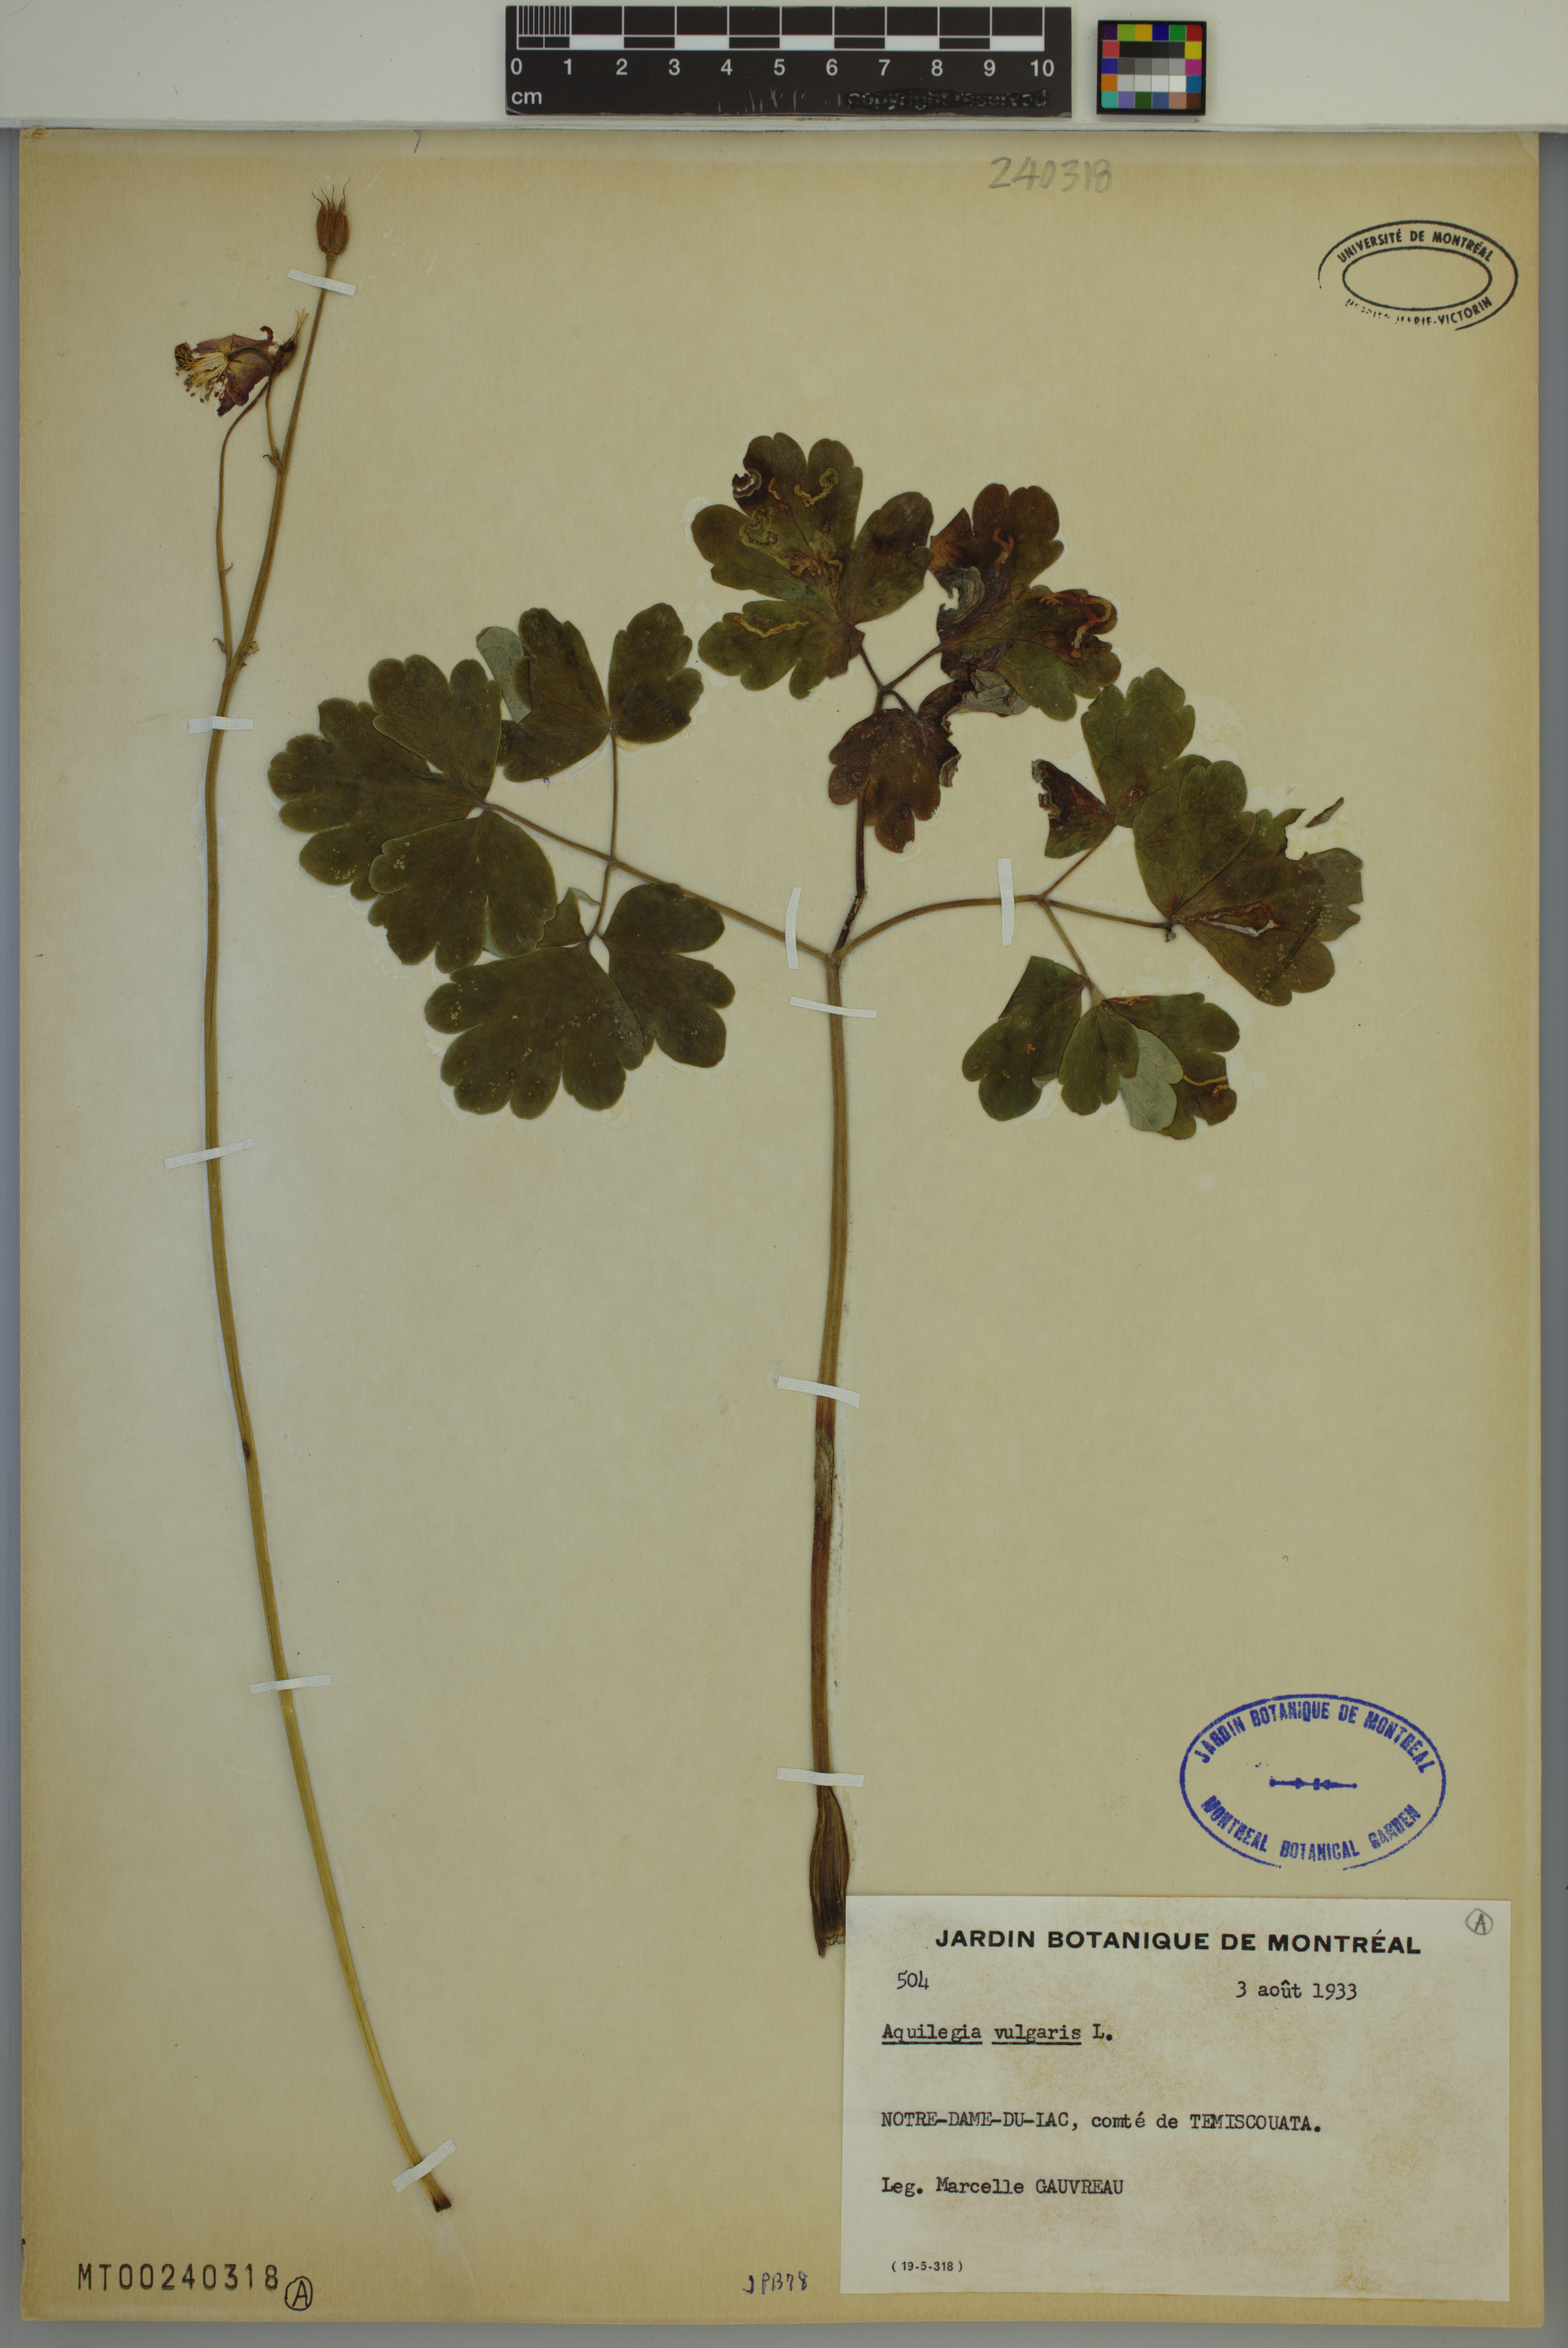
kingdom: Plantae
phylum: Tracheophyta
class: Magnoliopsida
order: Ranunculales
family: Ranunculaceae
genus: Aquilegia
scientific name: Aquilegia vulgaris
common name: Columbine
